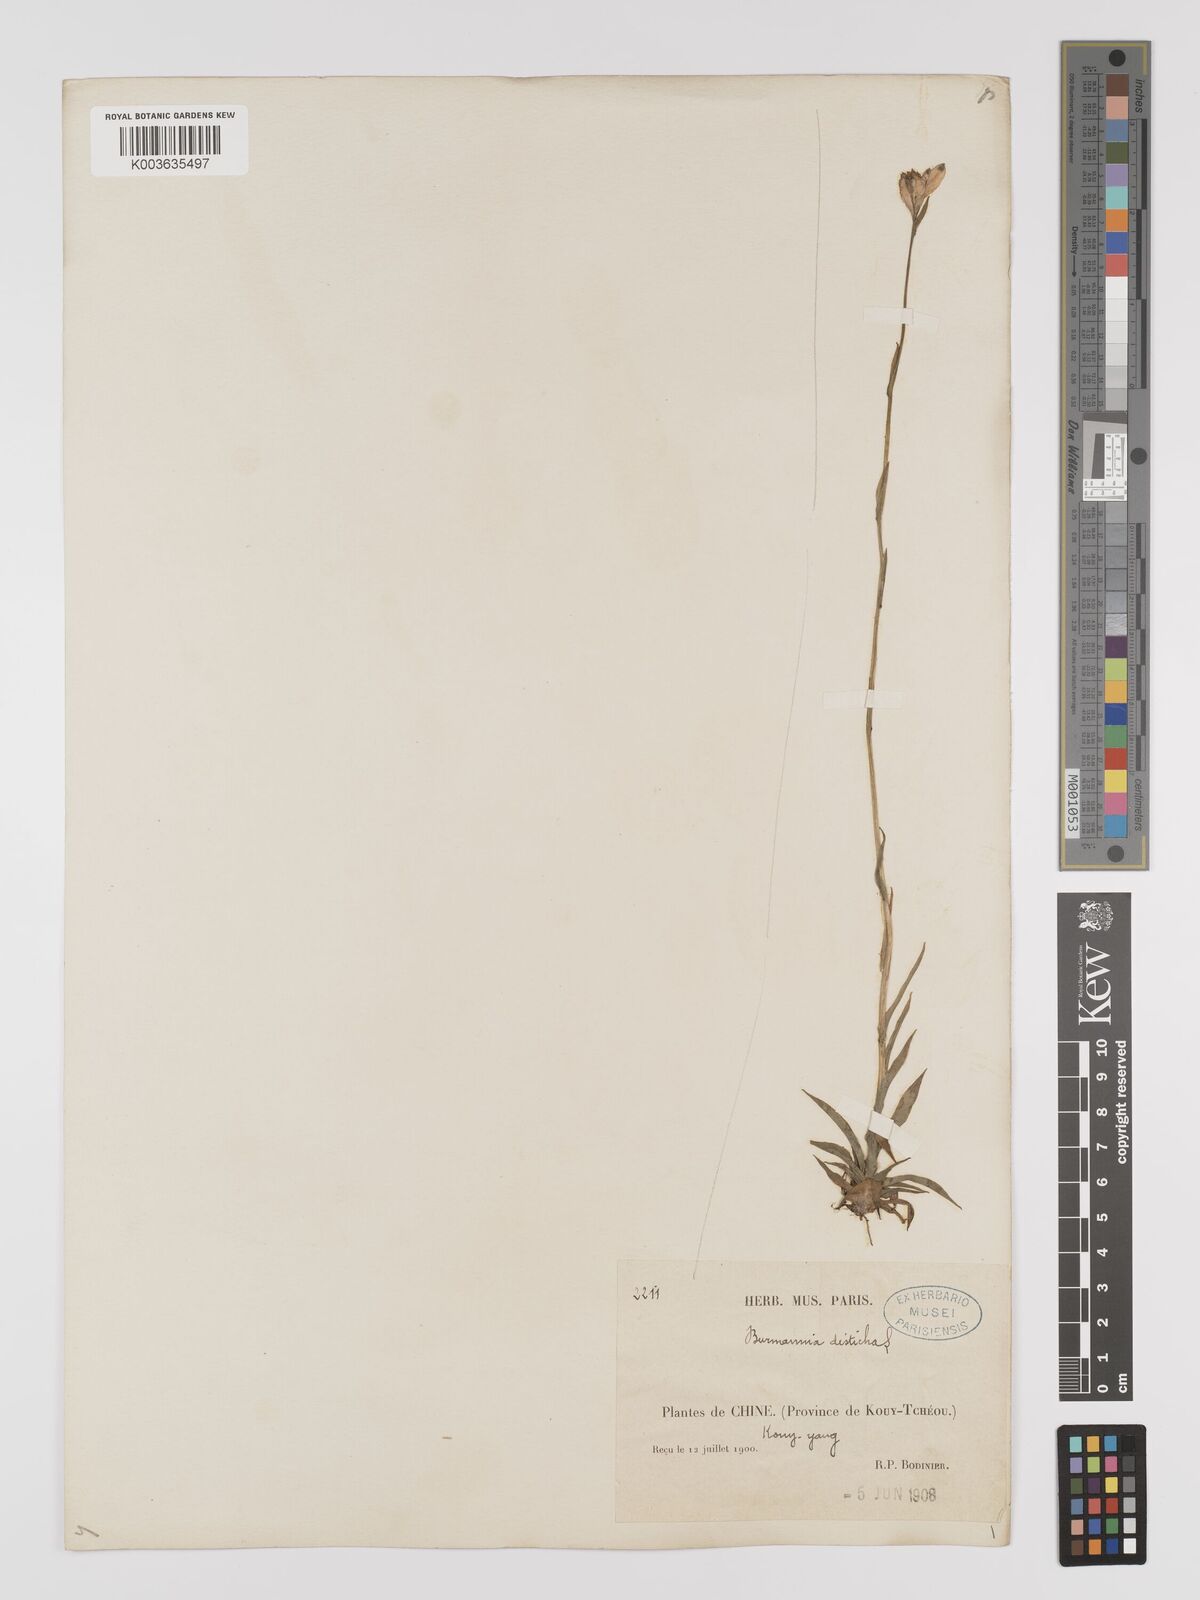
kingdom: Plantae
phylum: Tracheophyta
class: Liliopsida
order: Dioscoreales
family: Burmanniaceae
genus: Burmannia
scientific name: Burmannia disticha
